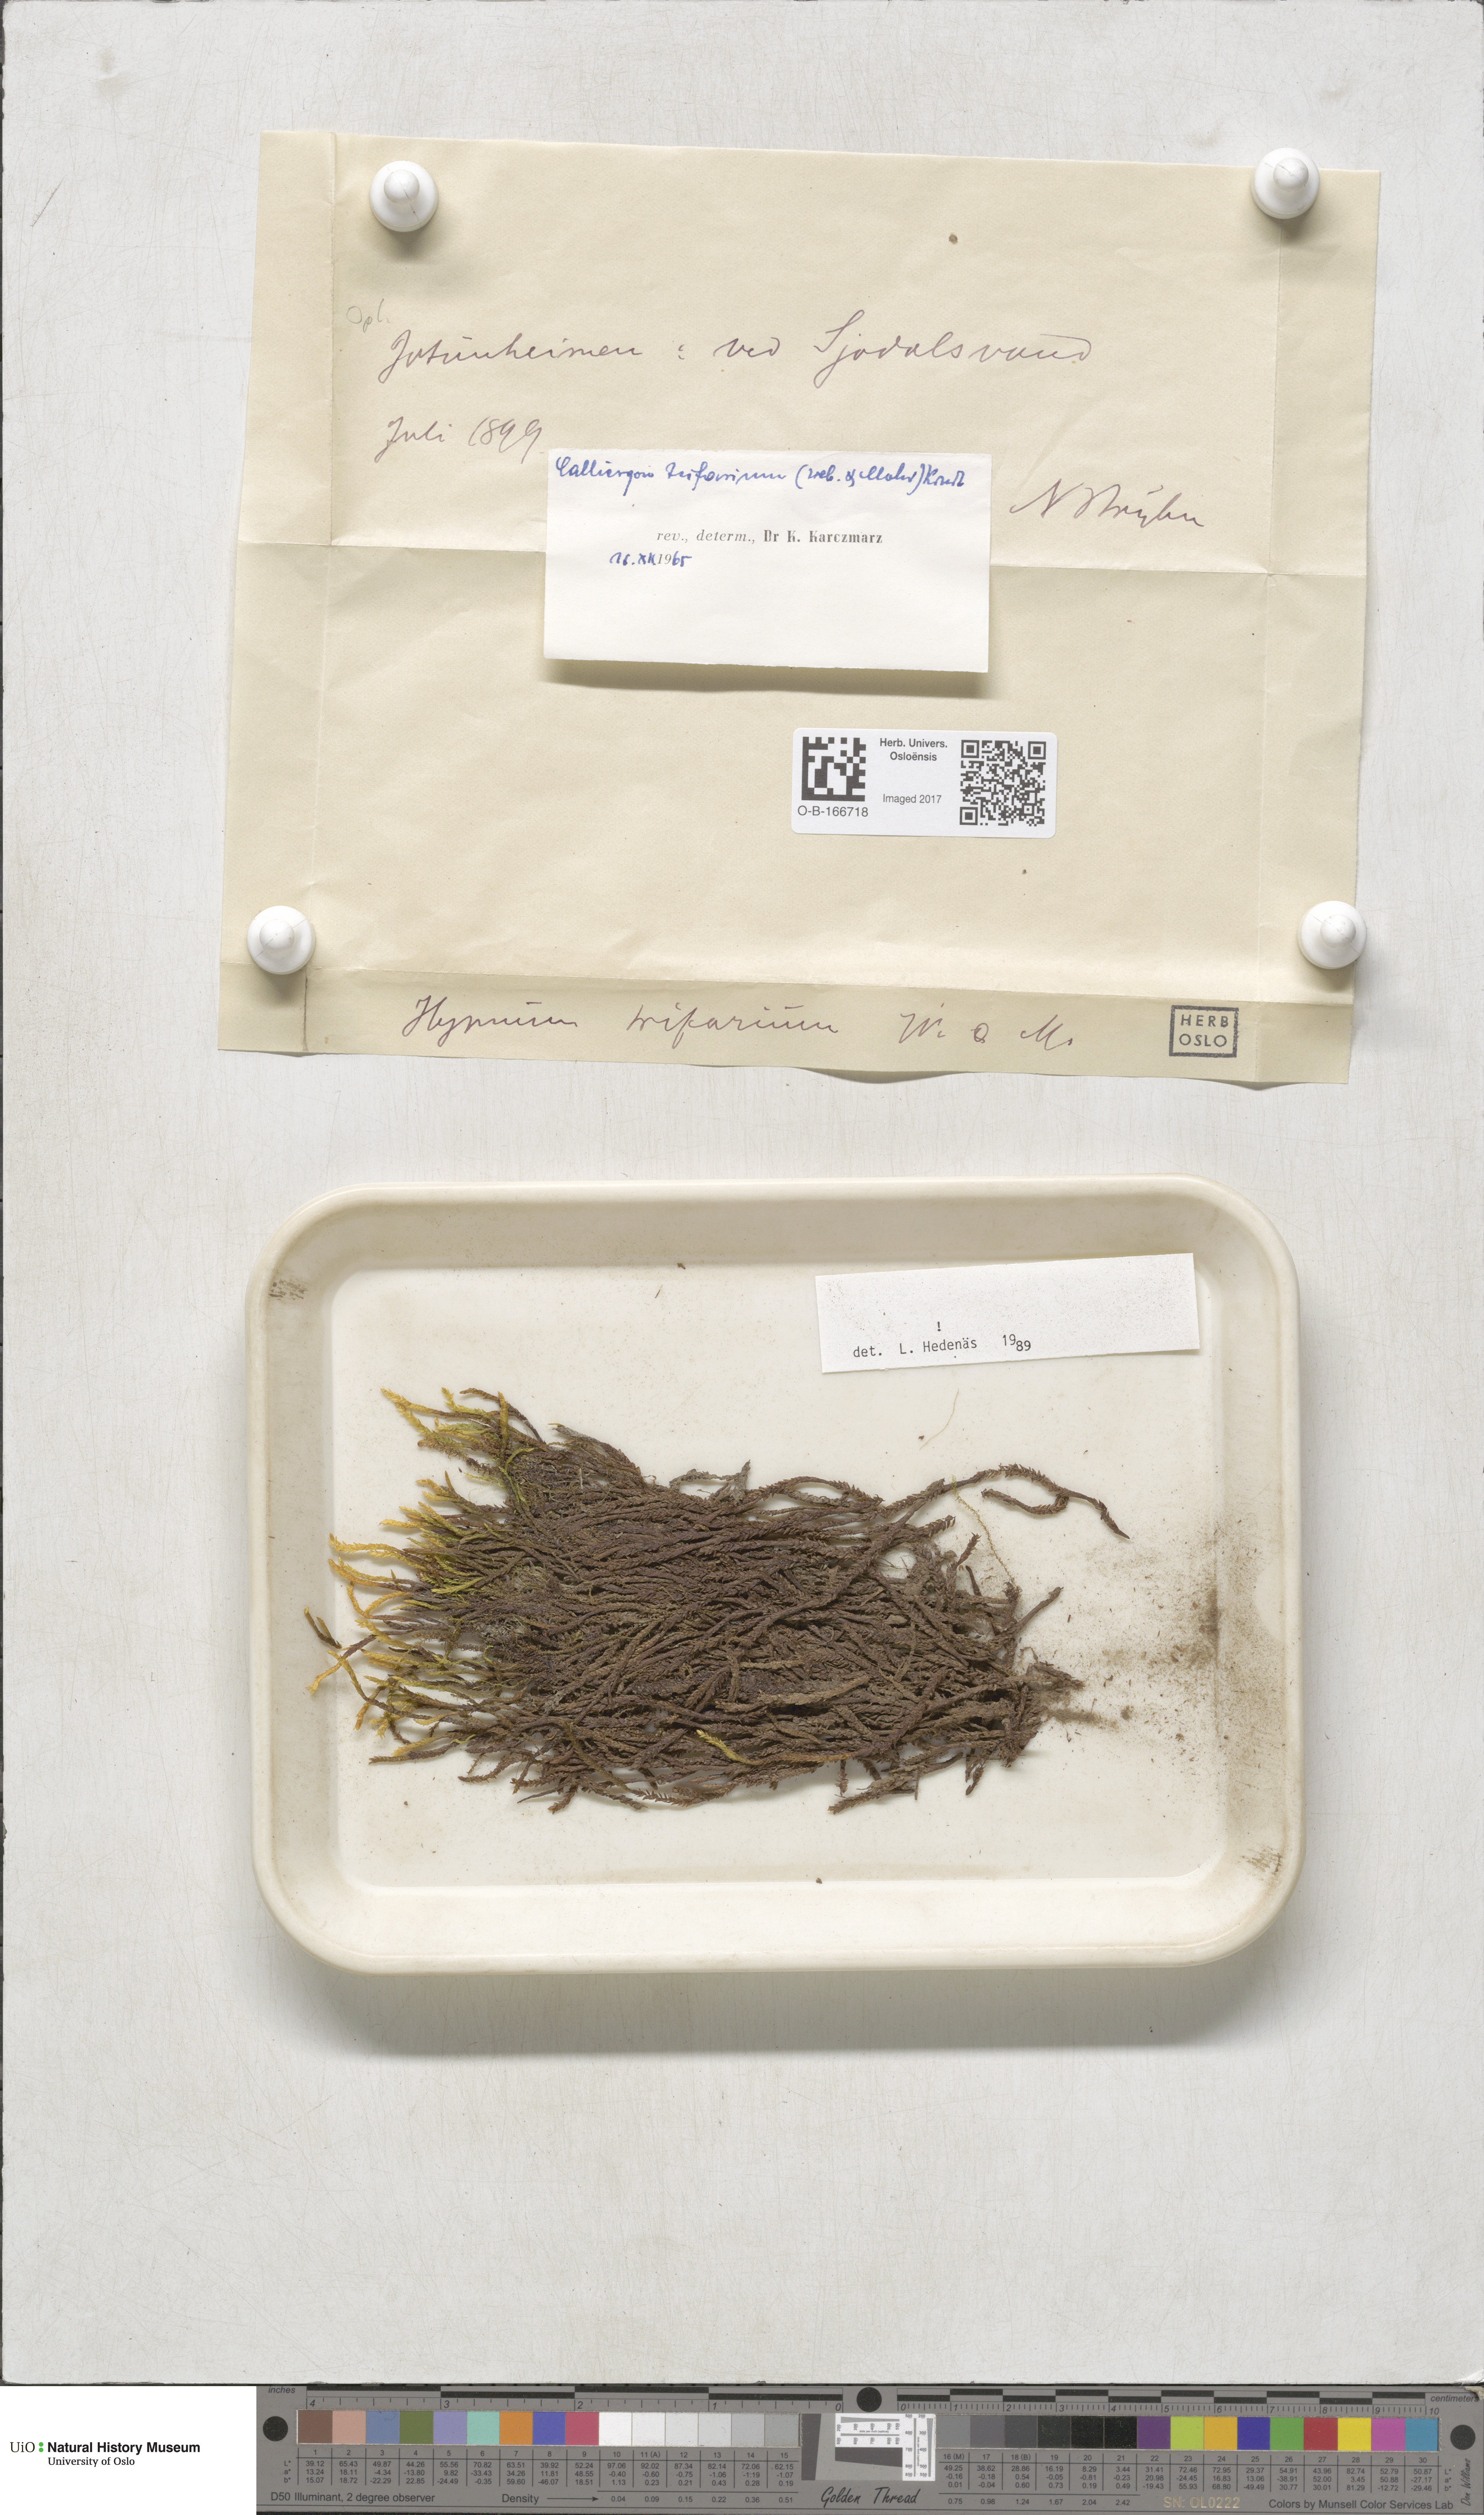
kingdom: Plantae
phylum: Bryophyta
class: Bryopsida
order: Hypnales
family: Amblystegiaceae
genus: Drepanocladus
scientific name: Drepanocladus trifarius
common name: Calliergon moss
